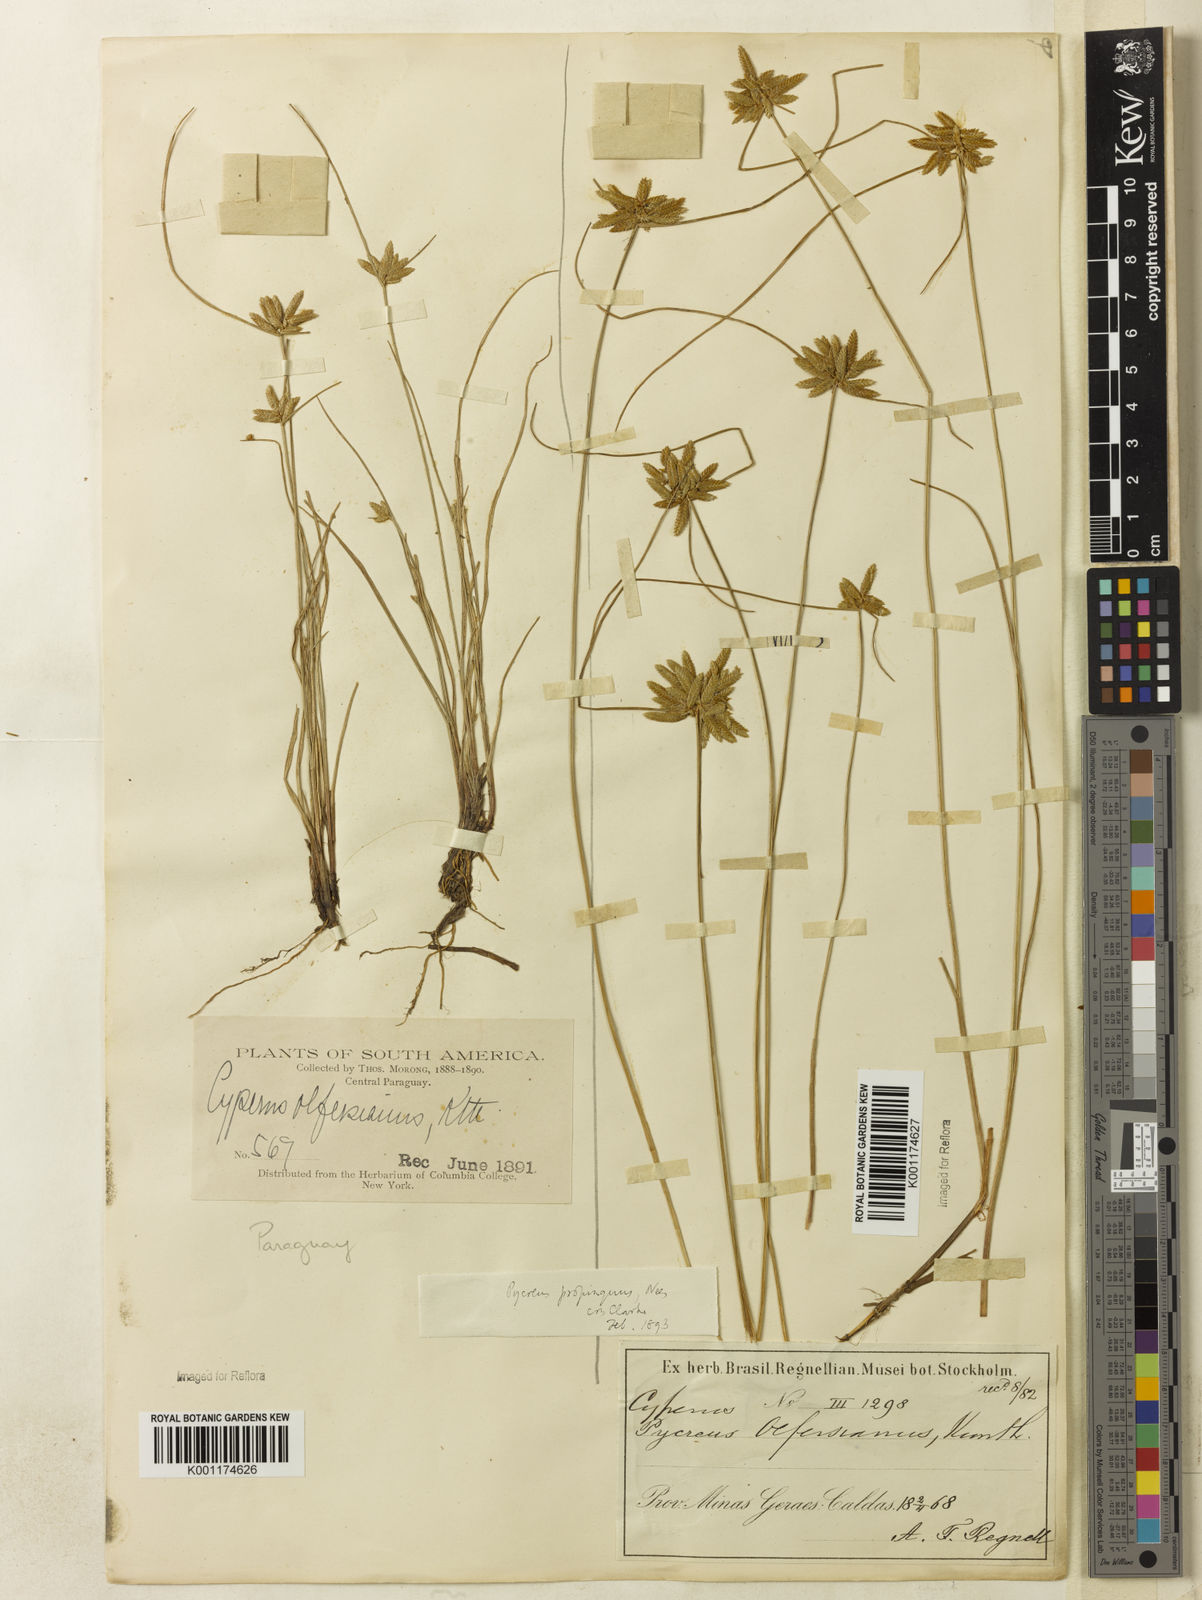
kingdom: Plantae
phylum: Tracheophyta
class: Liliopsida
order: Poales
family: Cyperaceae
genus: Cyperus
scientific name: Cyperus
